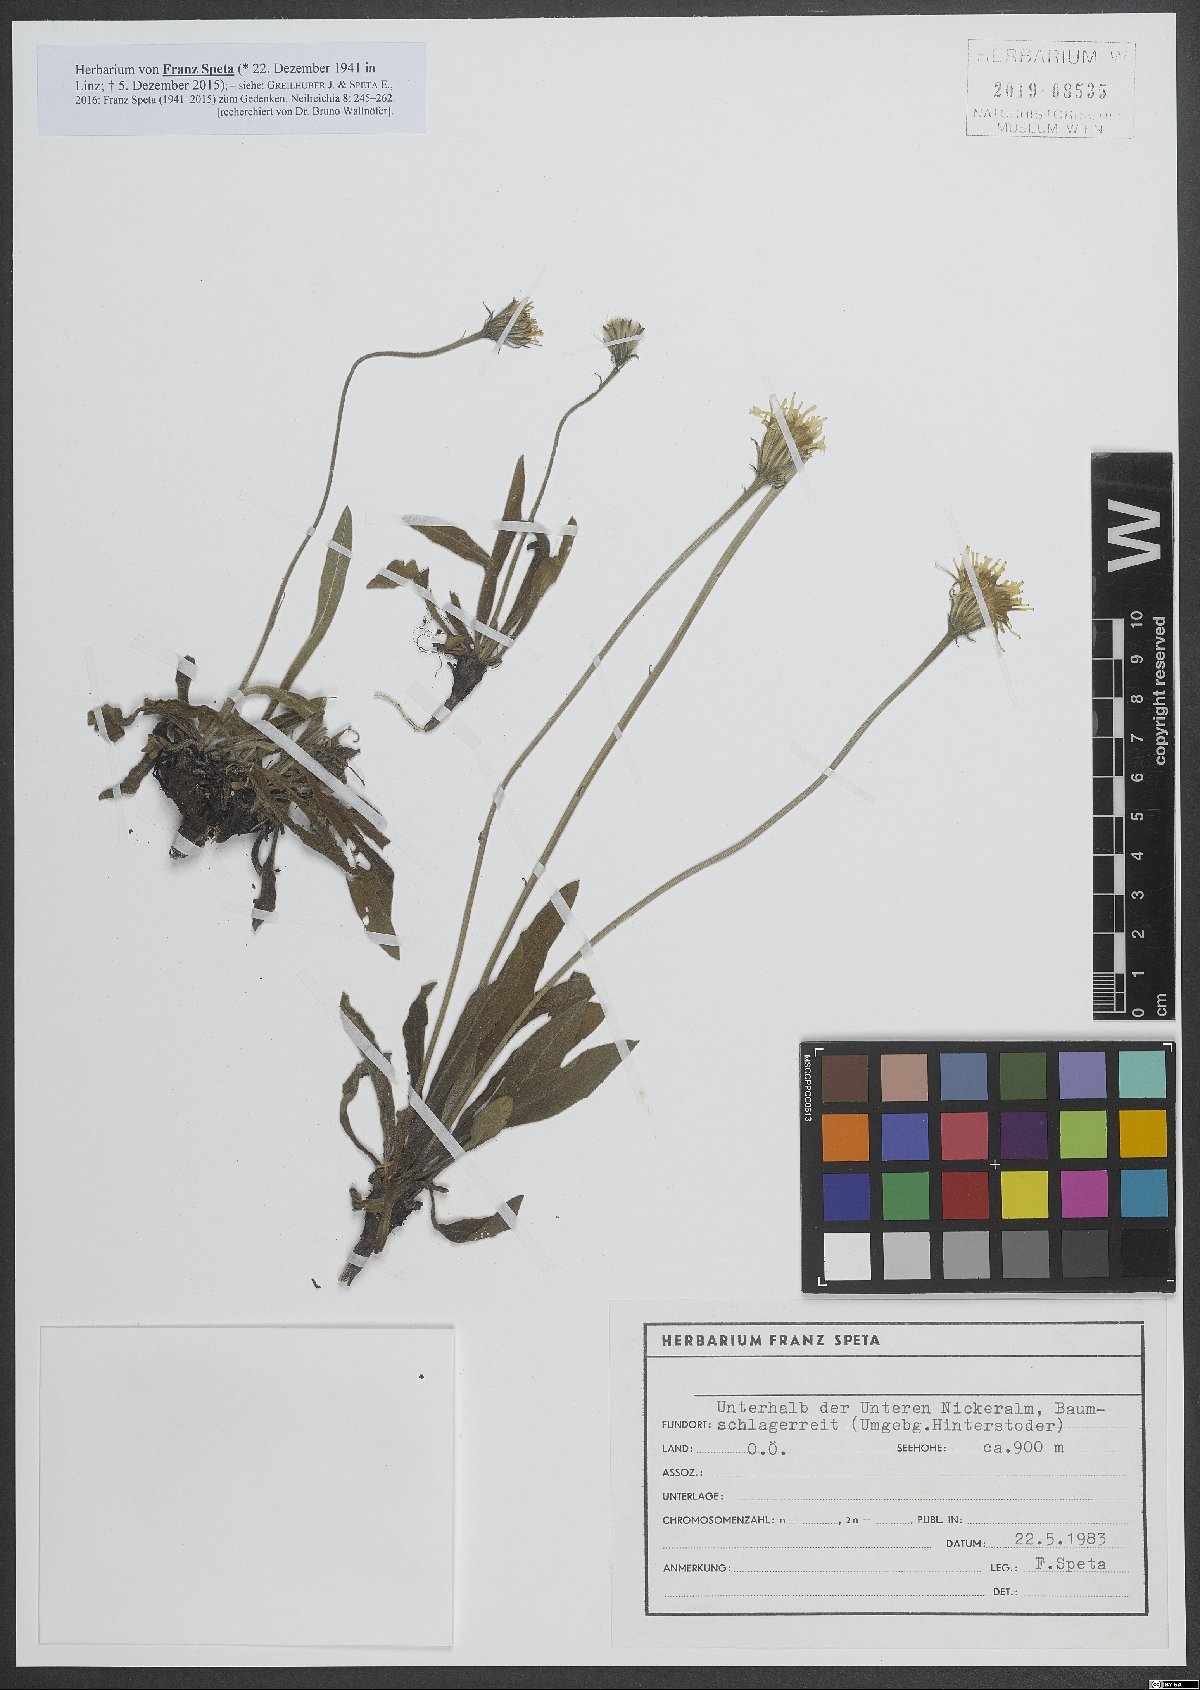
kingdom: Plantae
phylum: Tracheophyta
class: Magnoliopsida
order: Asterales
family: Asteraceae
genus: Leontodon
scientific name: Leontodon hispidus
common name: Rough hawkbit
